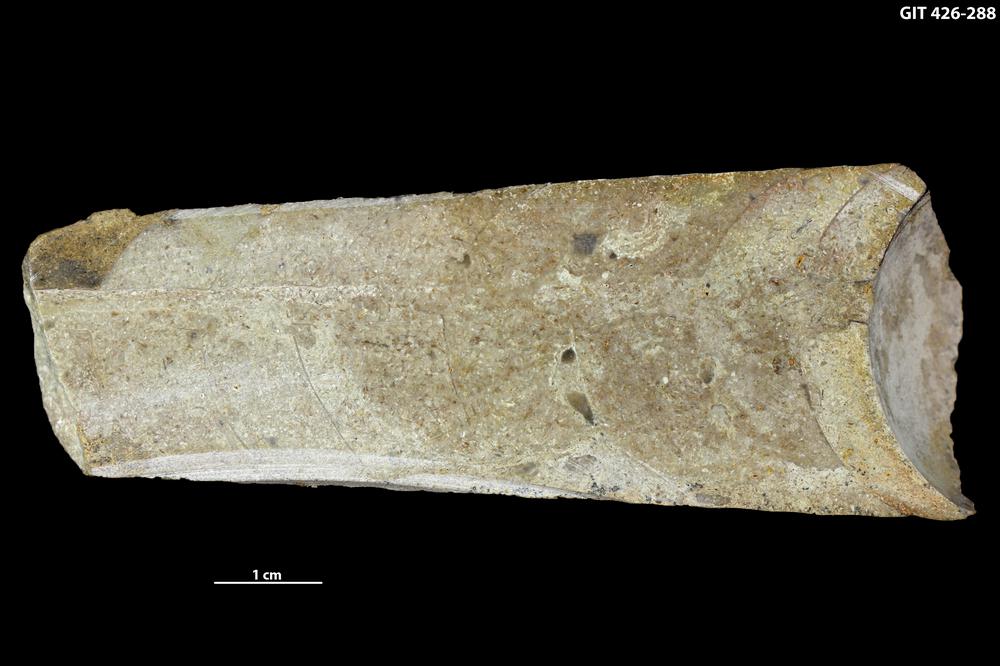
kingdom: Animalia
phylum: Mollusca
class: Cephalopoda
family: Lituitidae
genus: Lituites
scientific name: Lituites lituus
